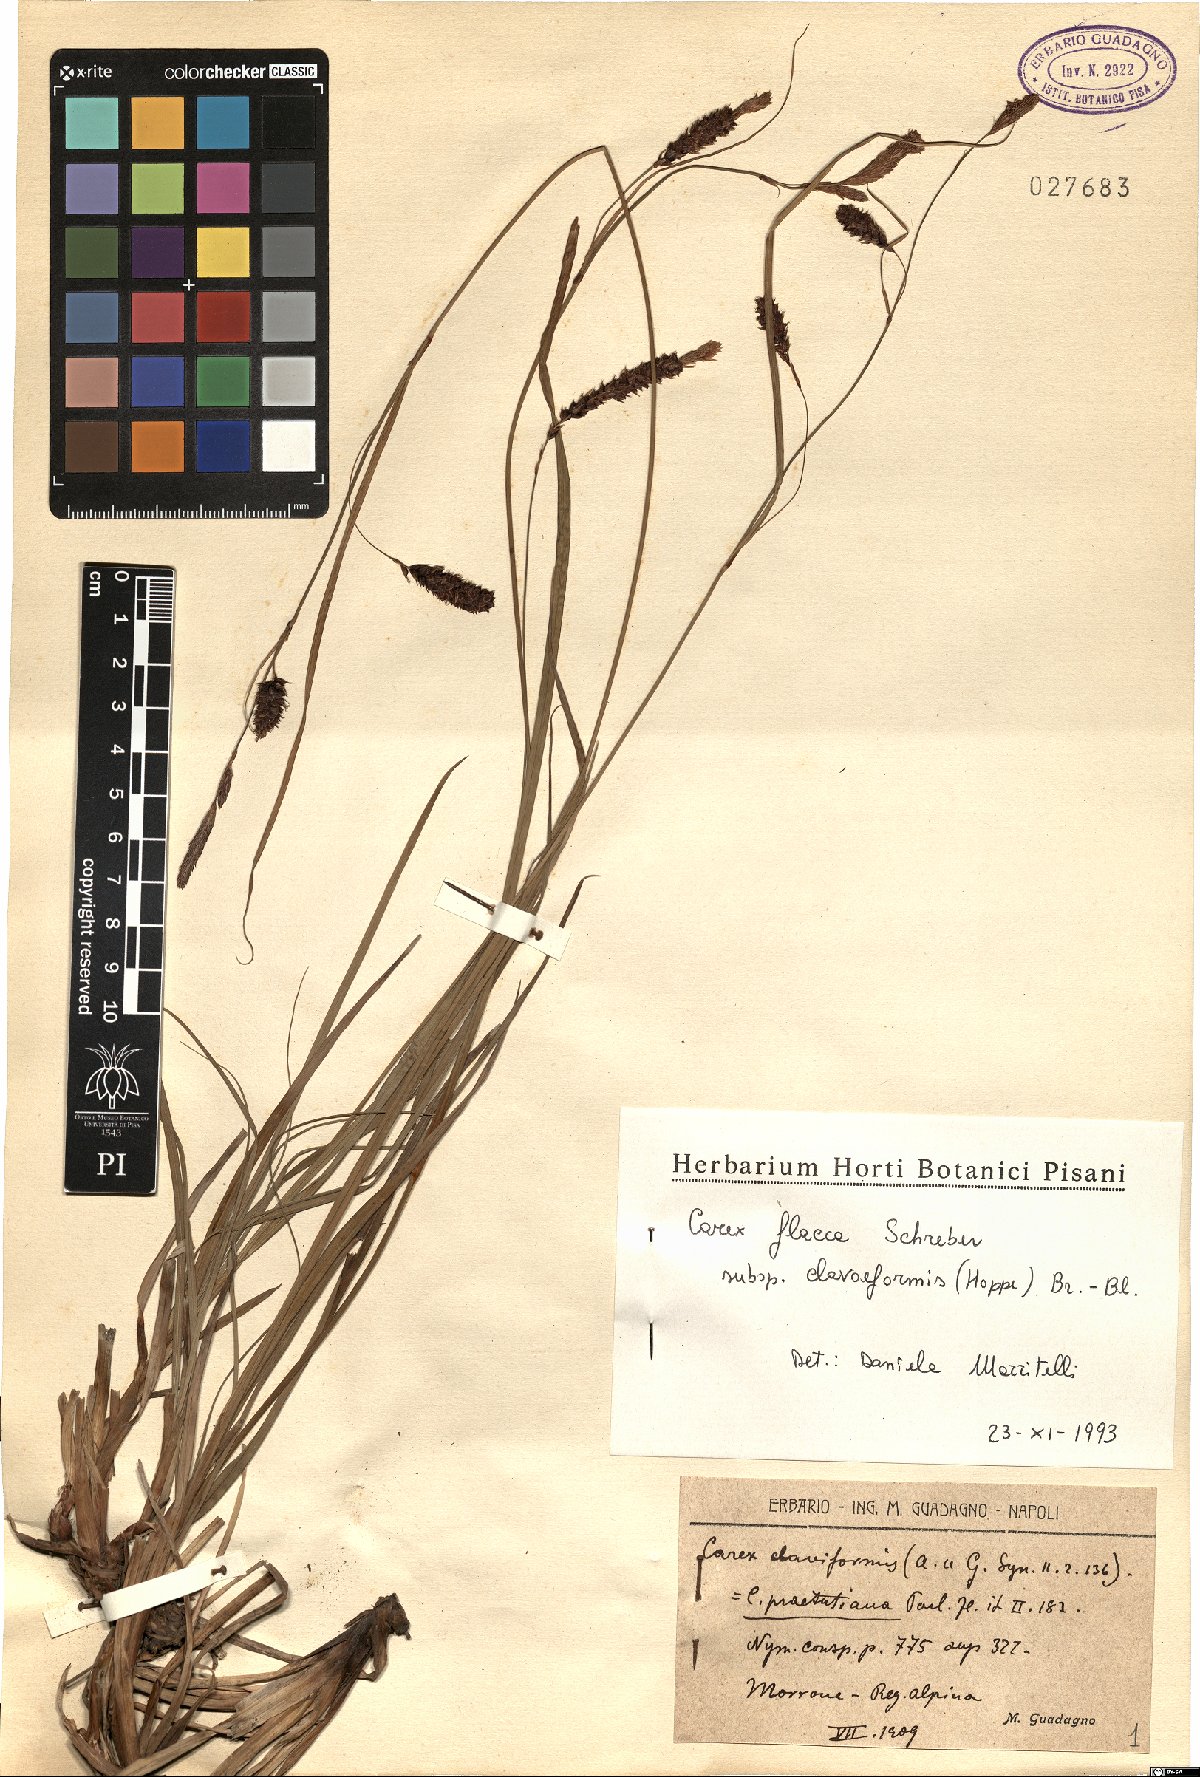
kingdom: Plantae
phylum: Tracheophyta
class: Liliopsida
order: Poales
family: Cyperaceae
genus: Carex
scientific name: Carex flacca
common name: Glaucous sedge
